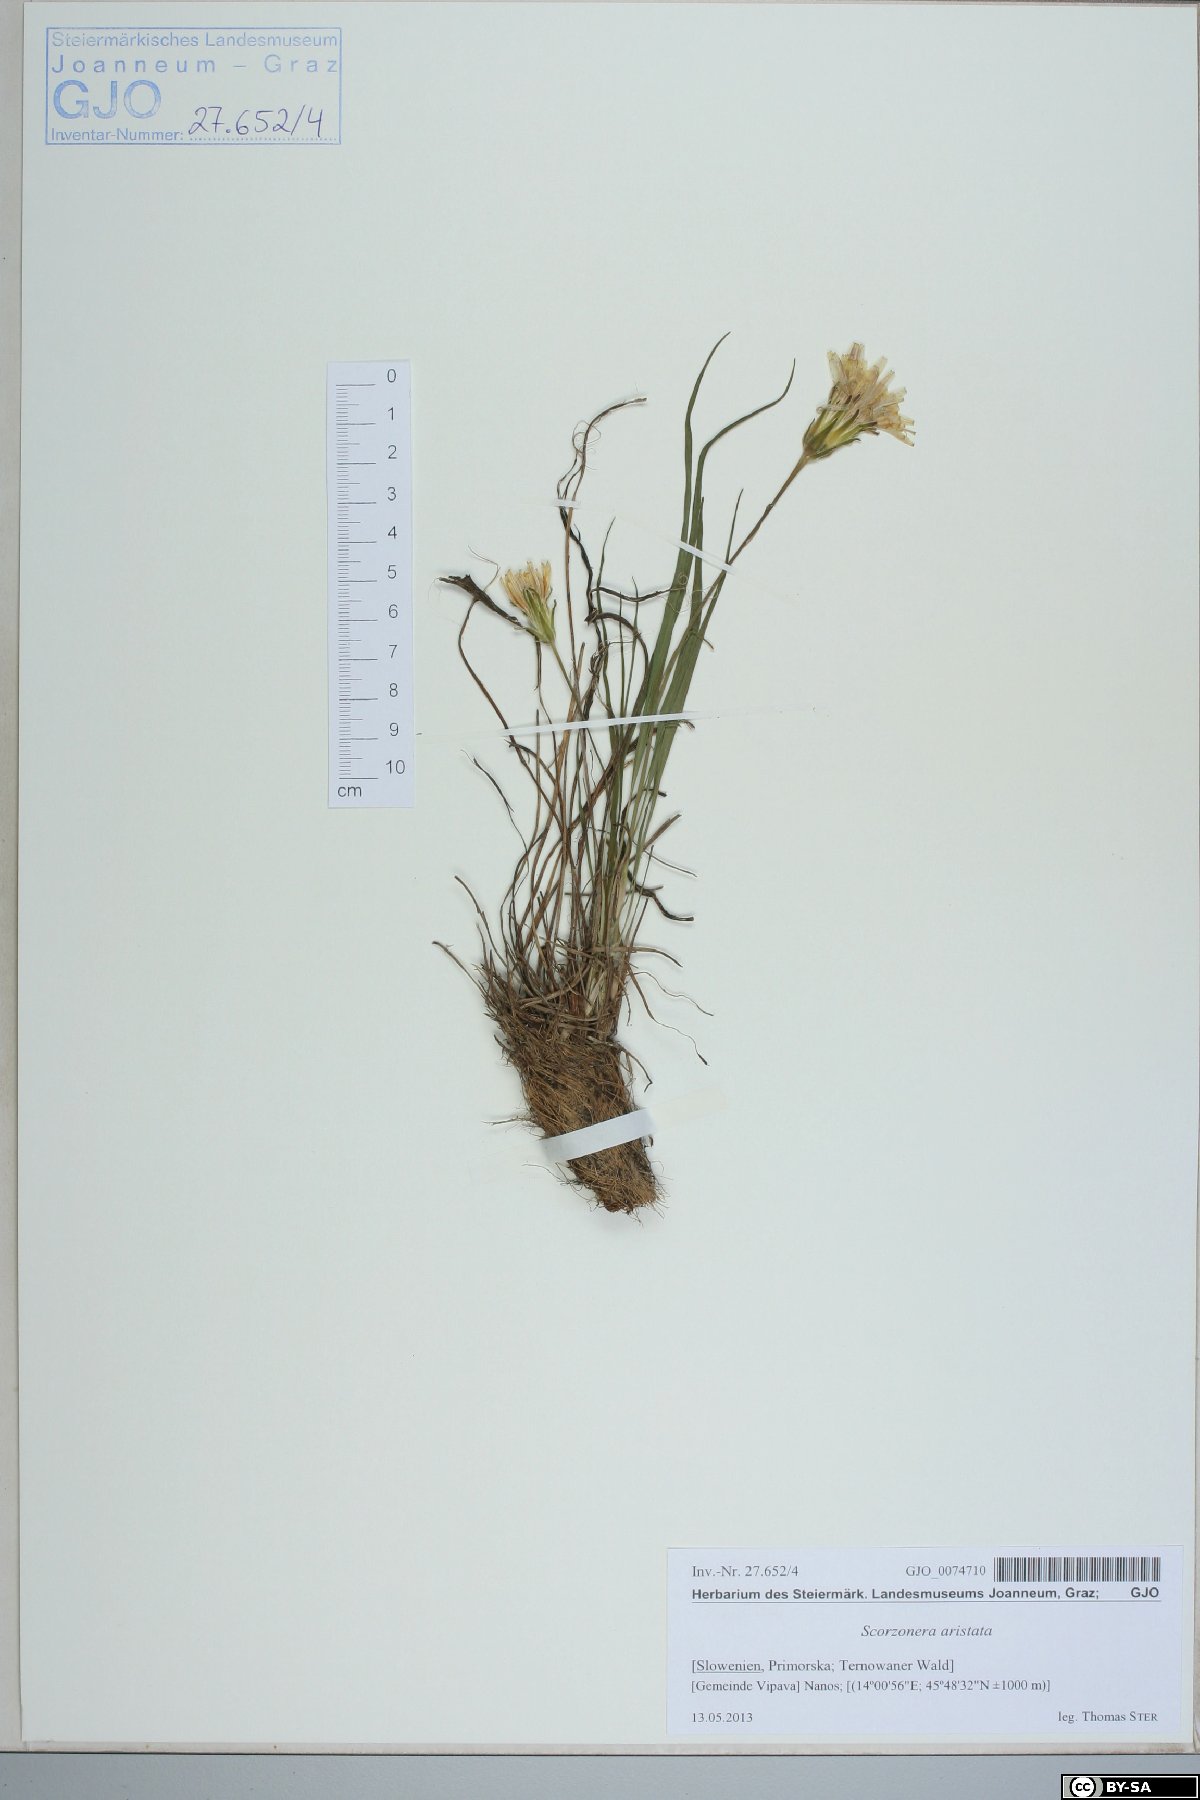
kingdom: Plantae
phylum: Tracheophyta
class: Magnoliopsida
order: Asterales
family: Asteraceae
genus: Scorzonera
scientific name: Scorzonera aristata
